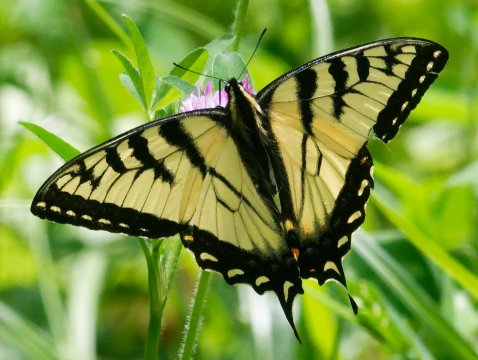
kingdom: Animalia
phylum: Arthropoda
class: Insecta
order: Lepidoptera
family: Papilionidae
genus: Pterourus
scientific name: Pterourus canadensis
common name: Canadian Tiger Swallowtail
